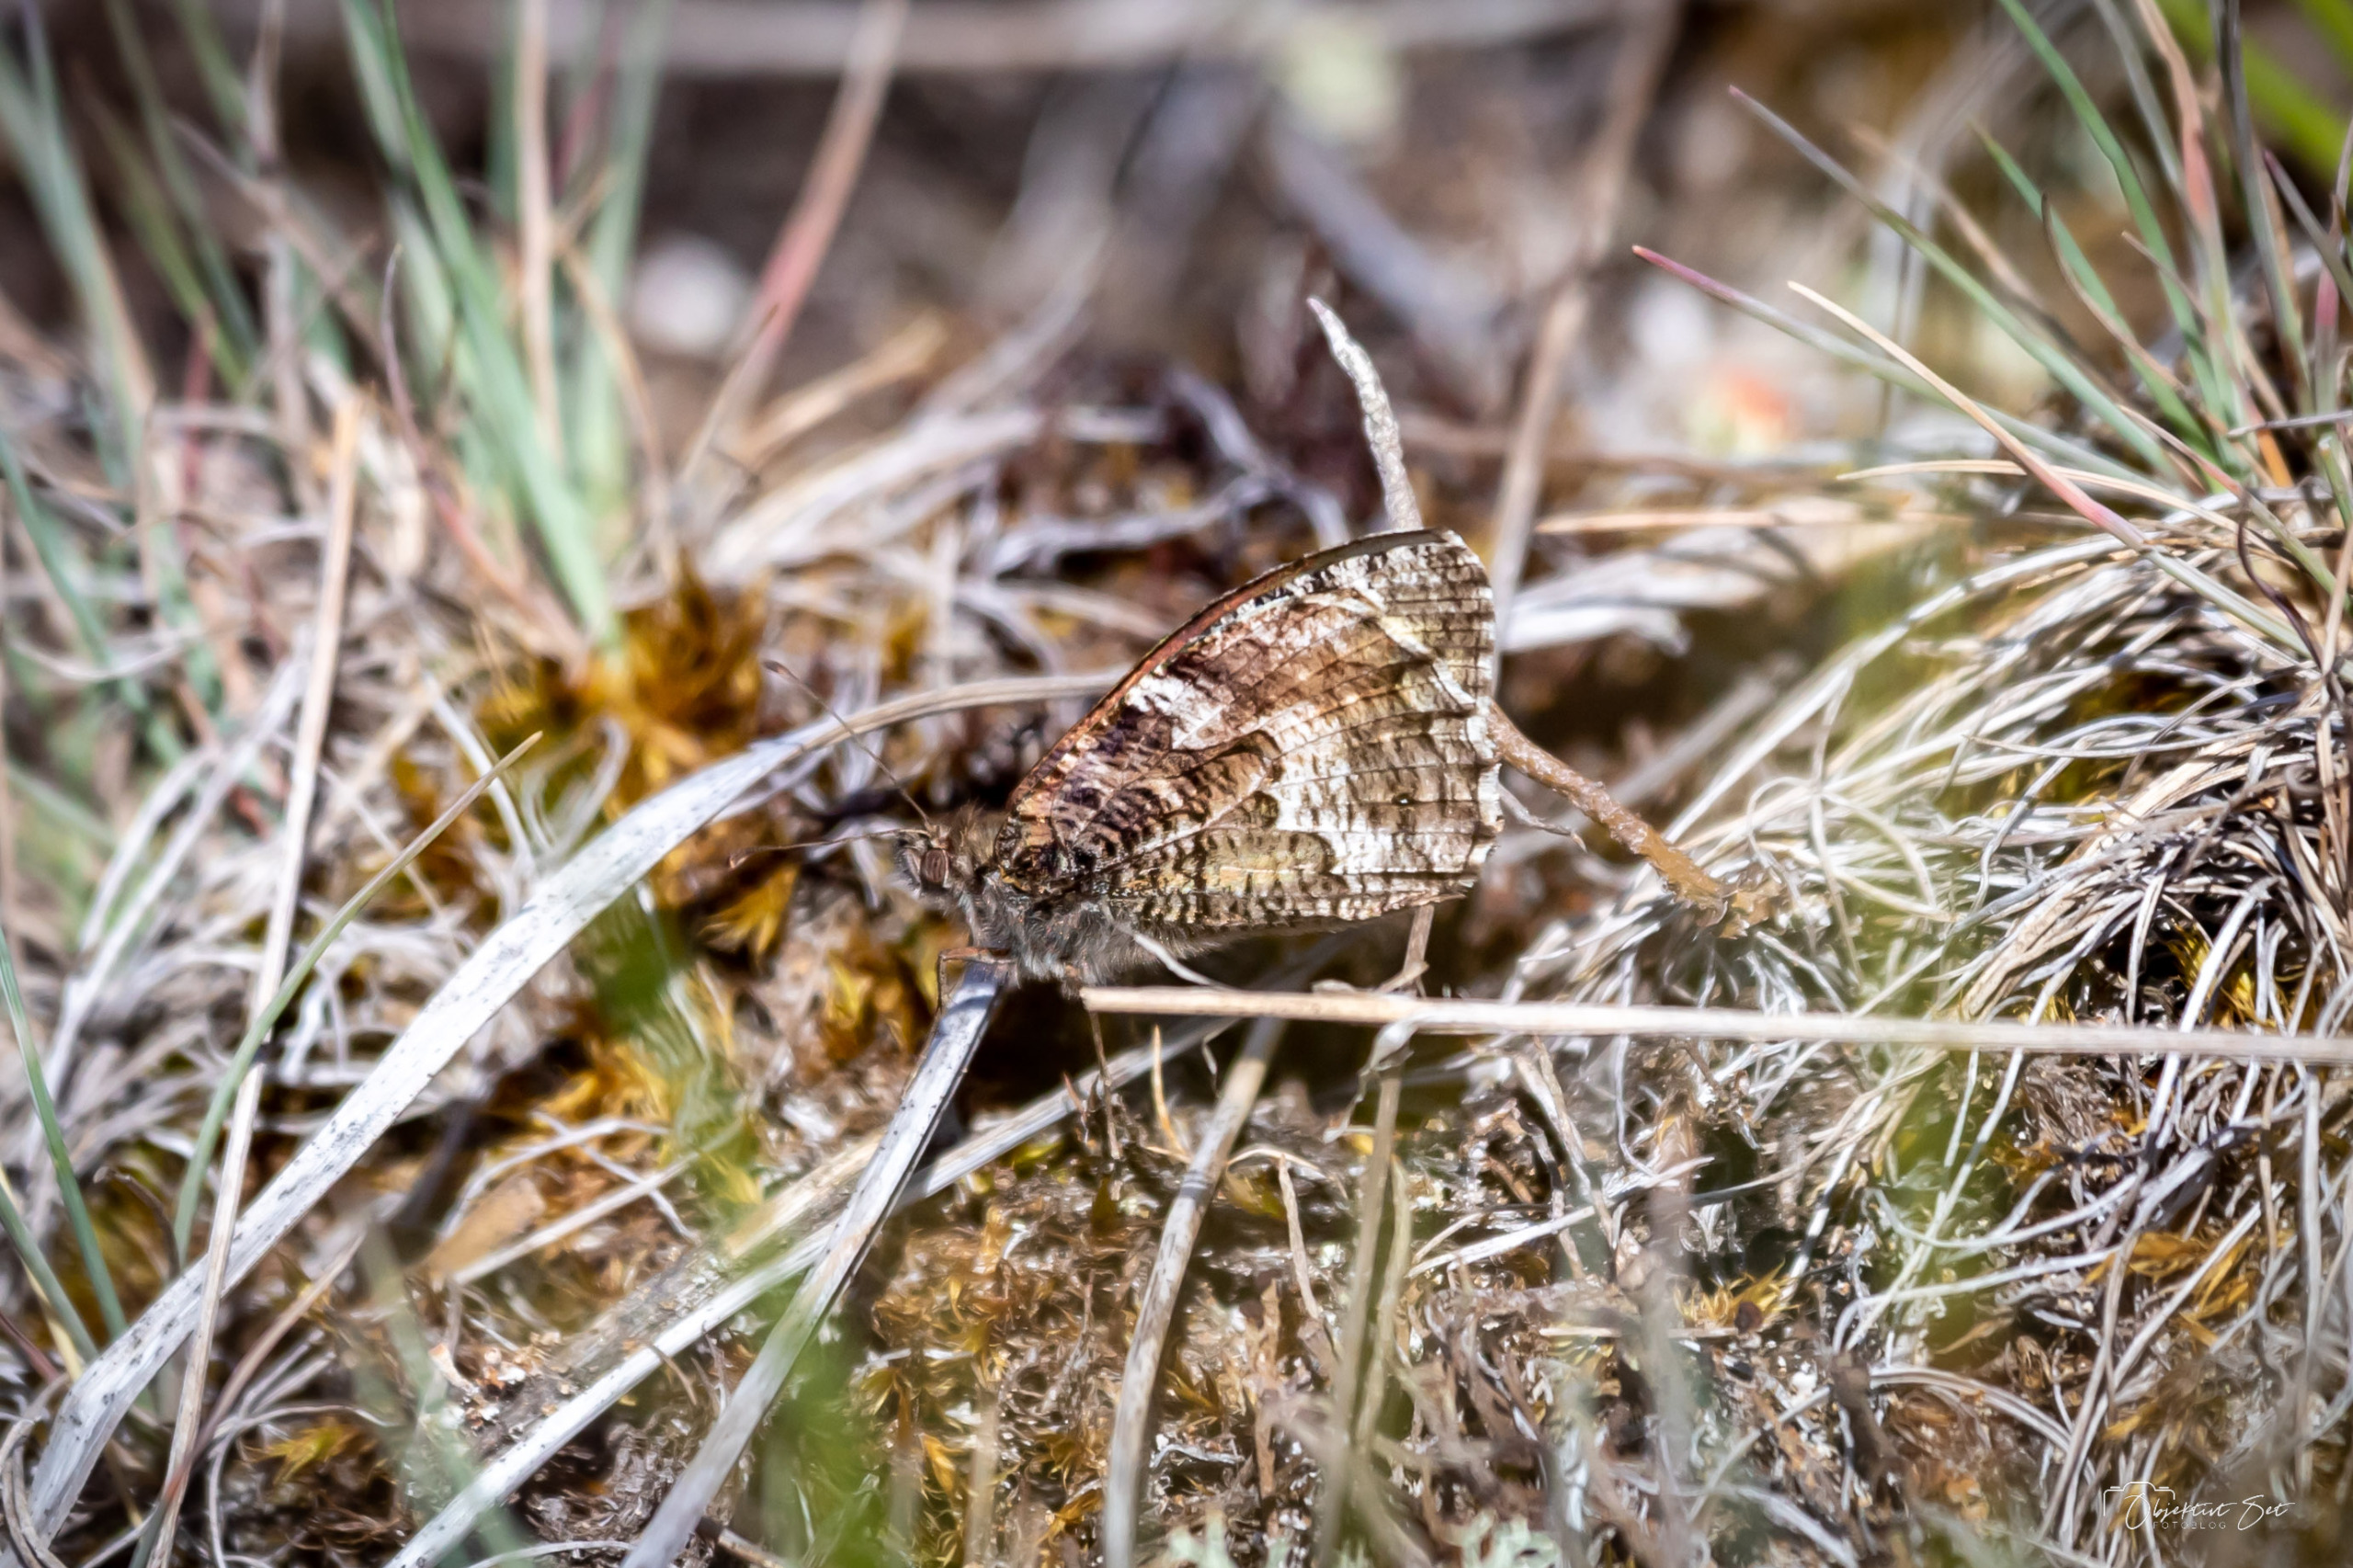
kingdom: Animalia
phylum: Arthropoda
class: Insecta
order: Lepidoptera
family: Nymphalidae
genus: Hipparchia
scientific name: Hipparchia semele
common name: Sandrandøje
